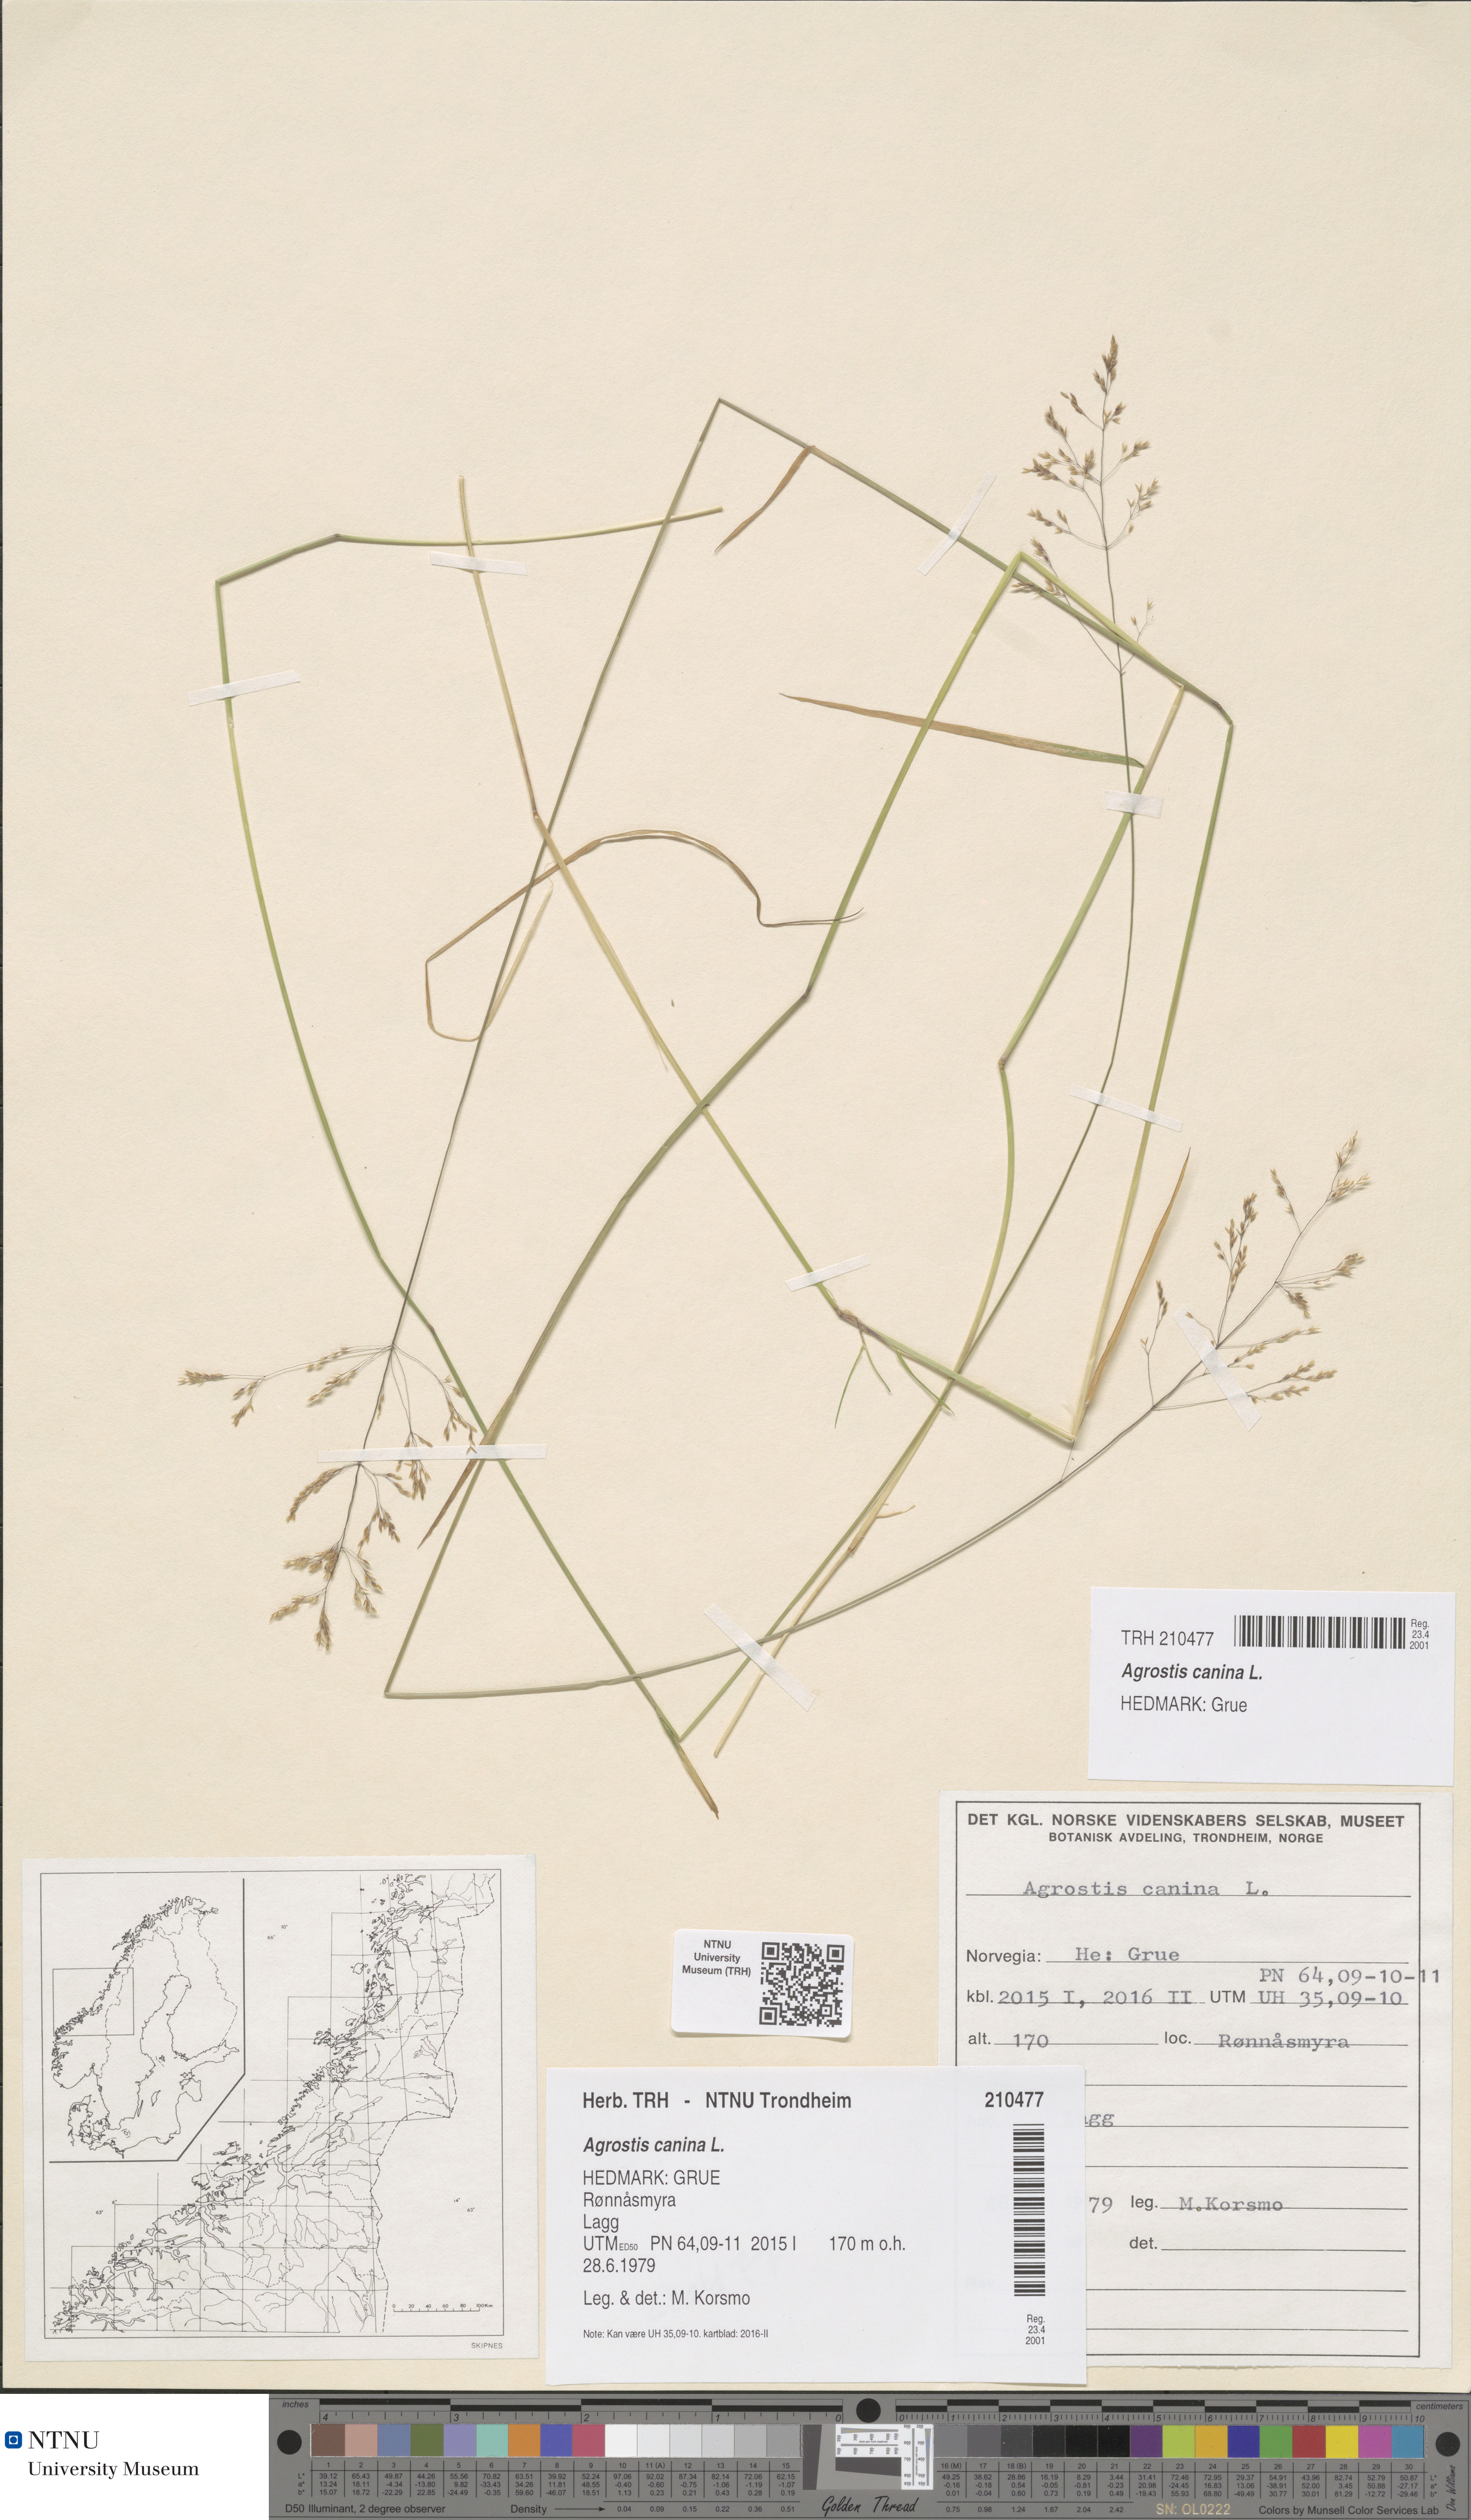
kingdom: Plantae
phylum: Tracheophyta
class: Liliopsida
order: Poales
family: Poaceae
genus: Agrostis
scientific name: Agrostis canina
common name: Velvet bent
